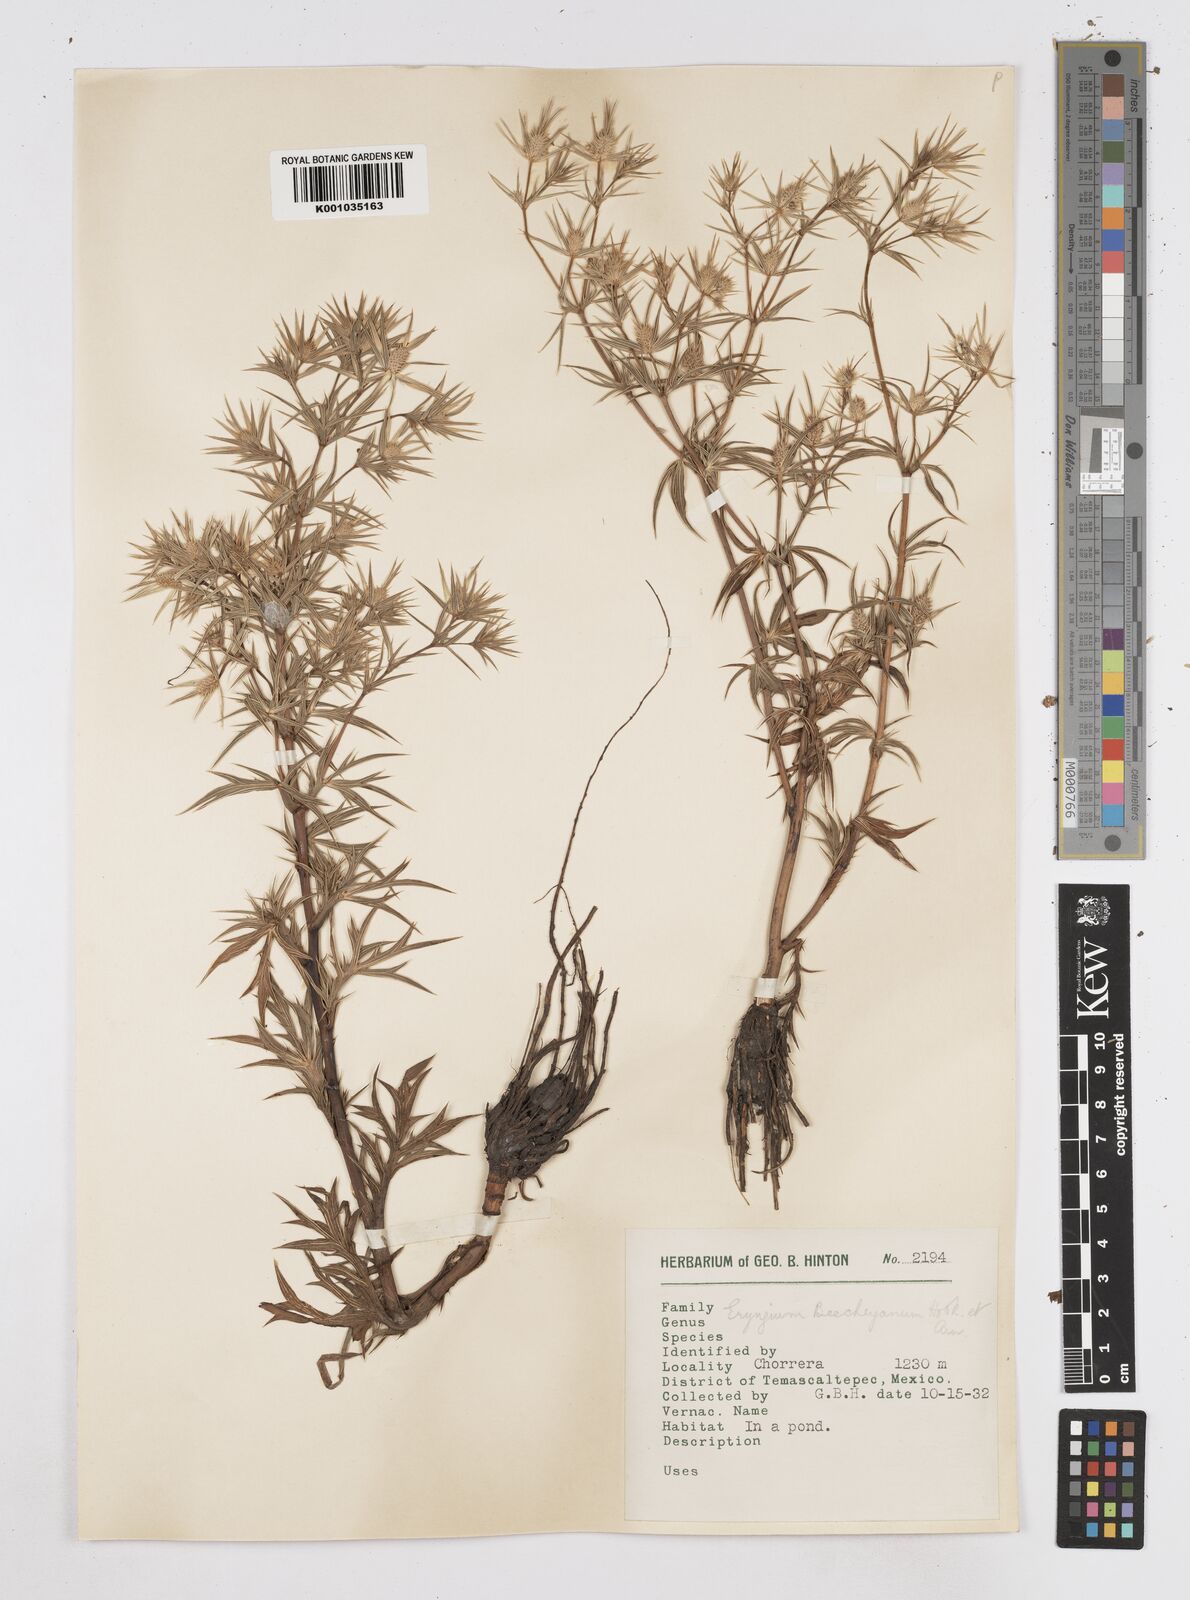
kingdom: Plantae
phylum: Tracheophyta
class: Magnoliopsida
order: Apiales
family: Apiaceae
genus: Eryngium
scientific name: Eryngium beecheyanum
